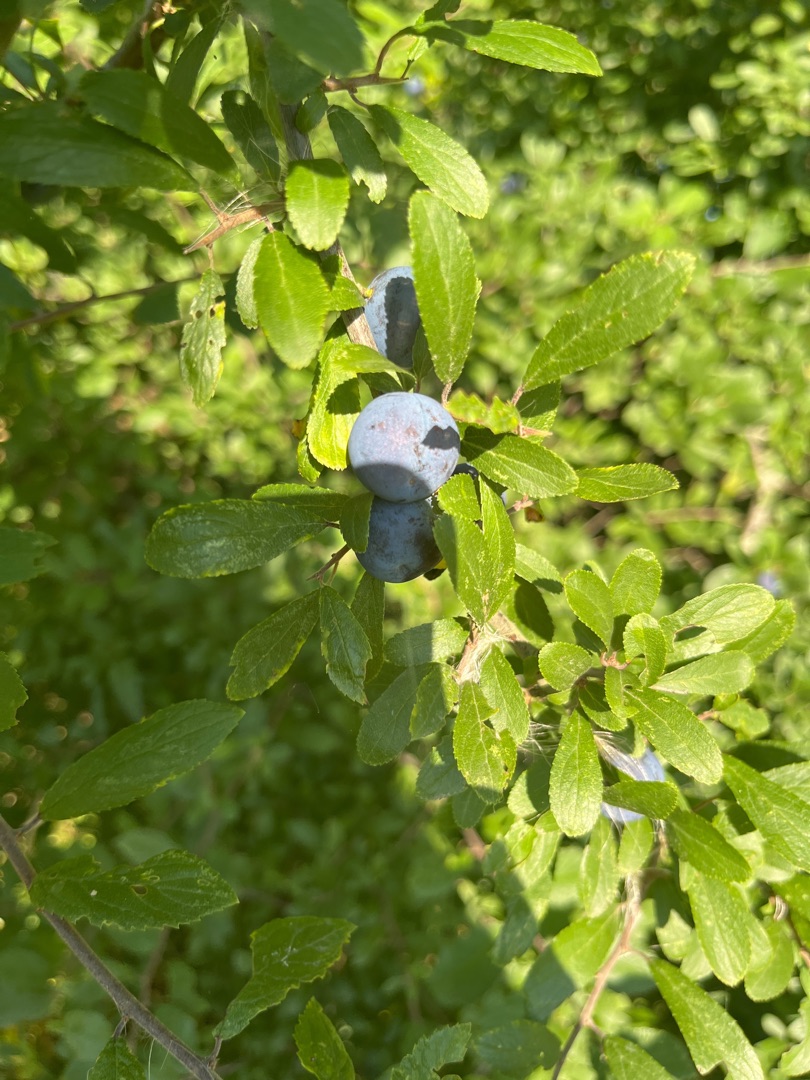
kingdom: Plantae
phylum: Tracheophyta
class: Magnoliopsida
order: Rosales
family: Rosaceae
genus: Prunus
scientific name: Prunus spinosa
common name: Slåen
